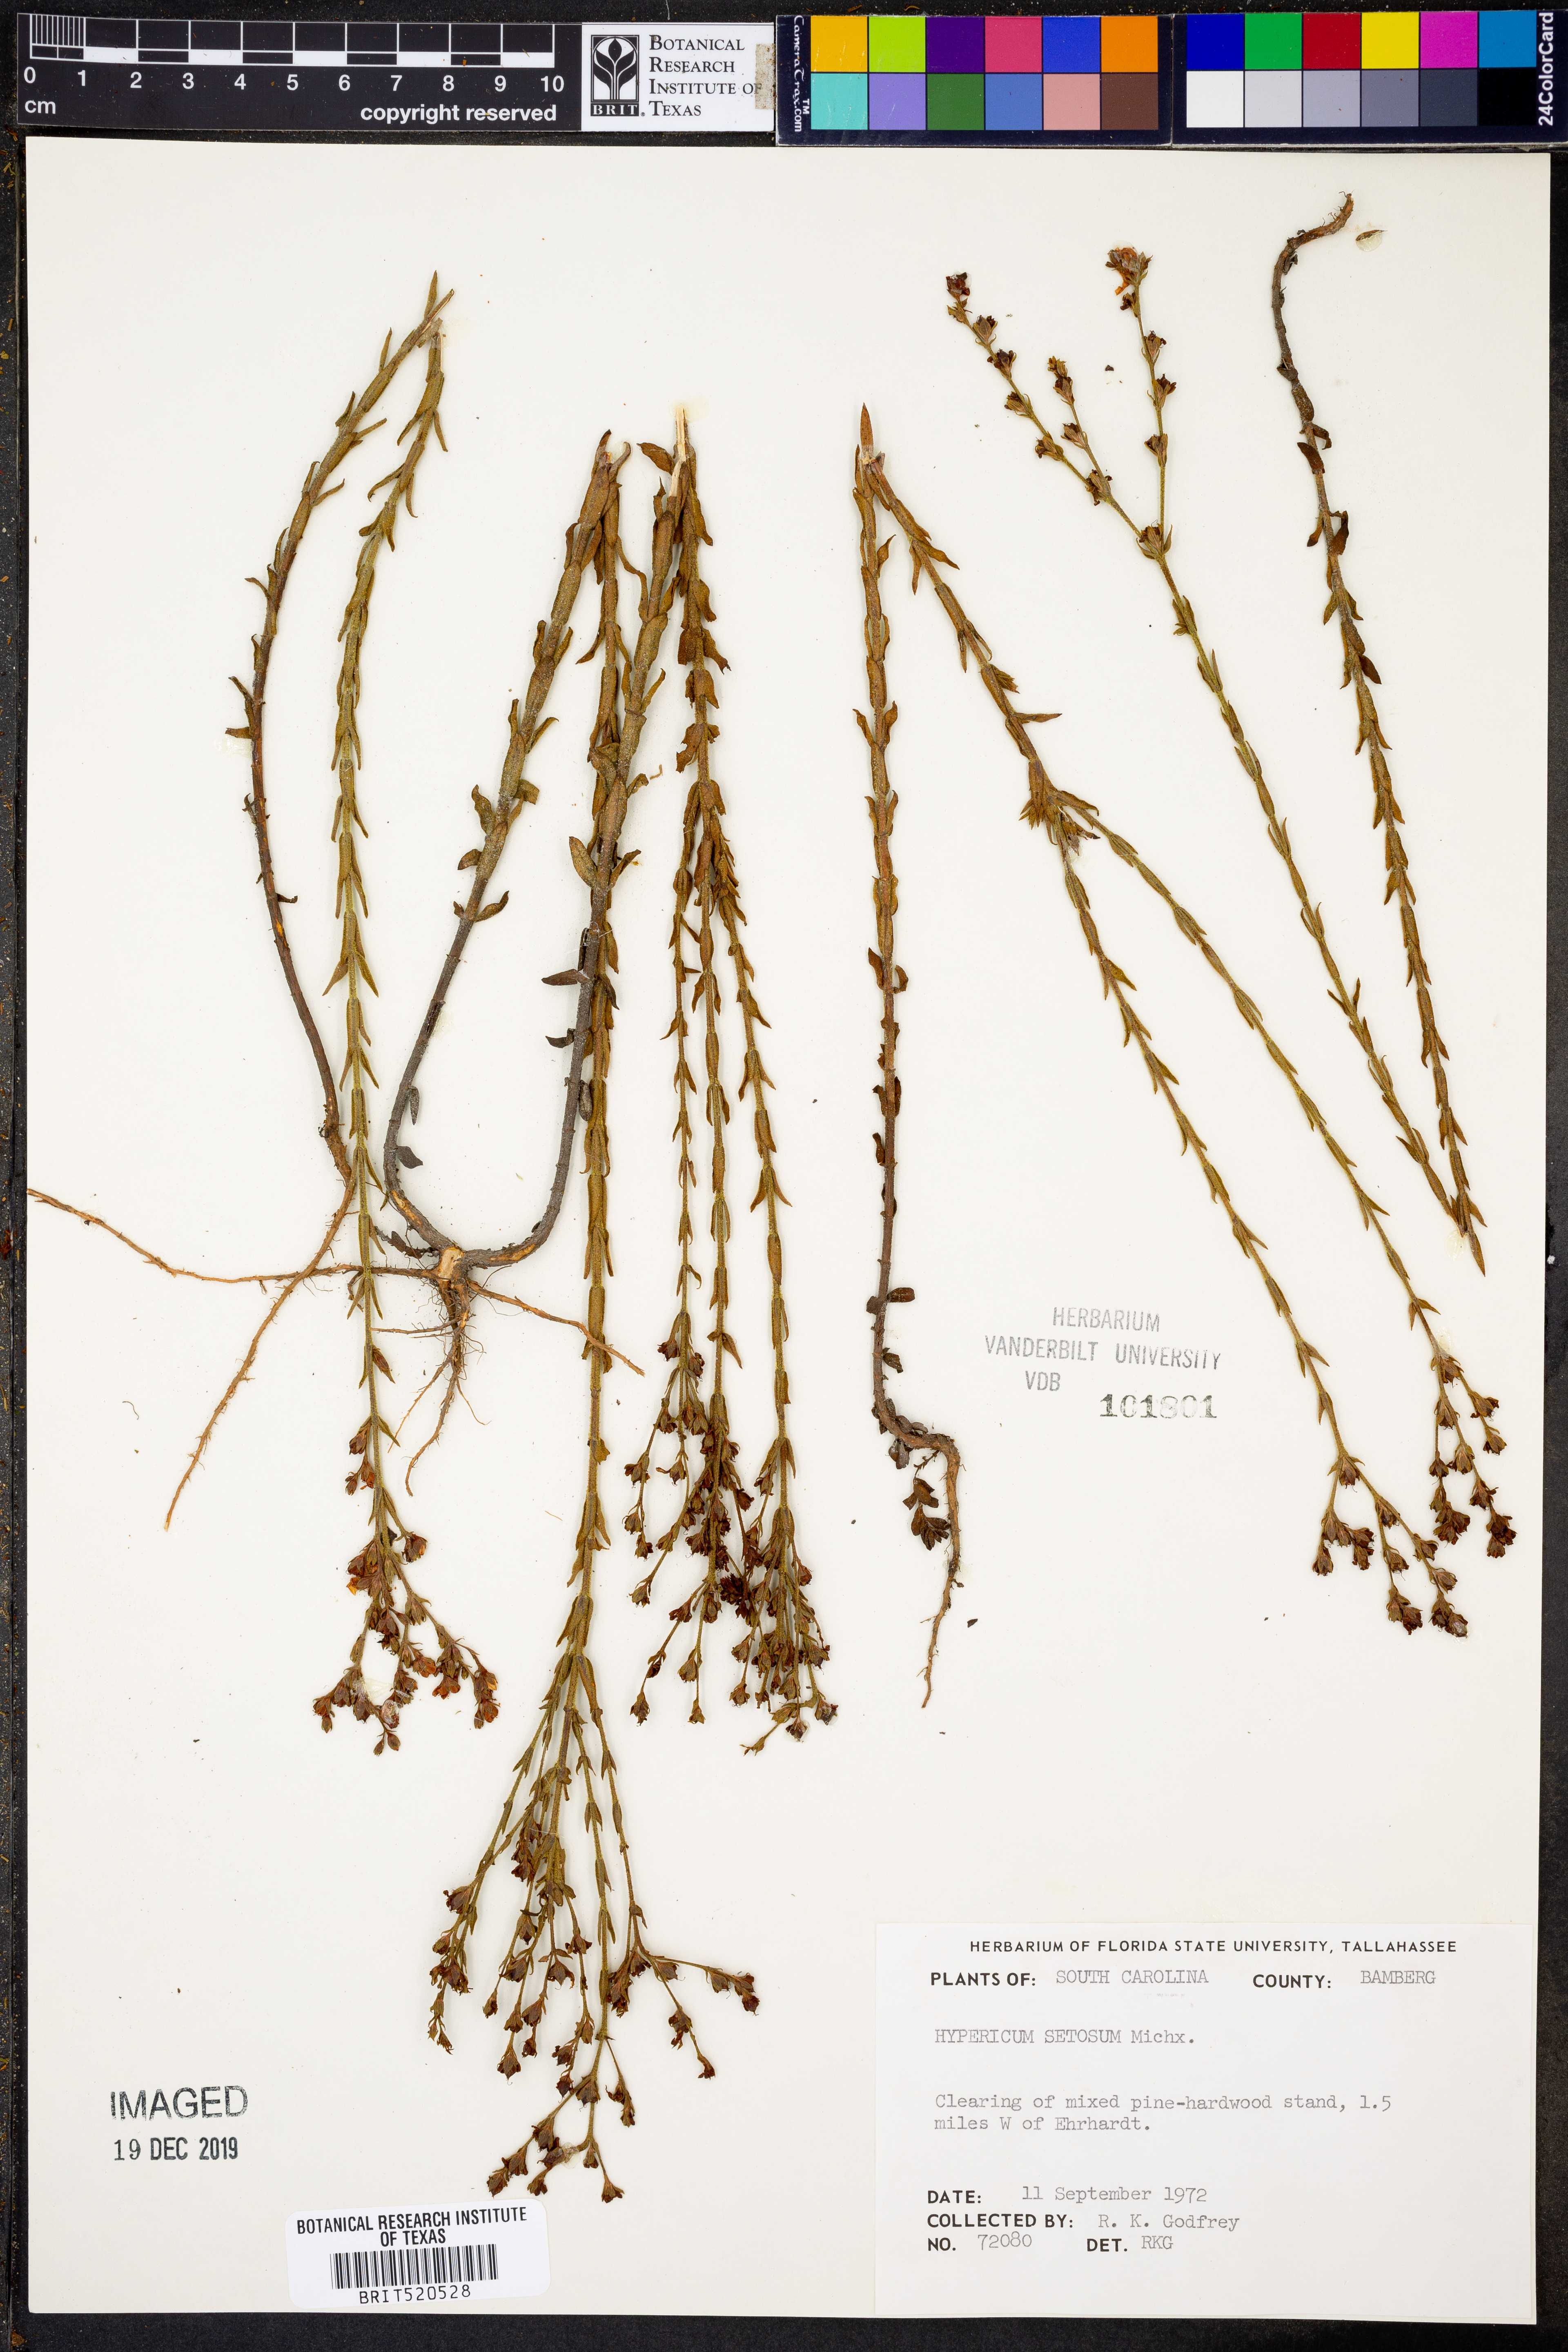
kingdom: Plantae
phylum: Tracheophyta
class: Magnoliopsida
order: Malpighiales
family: Hypericaceae
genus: Hypericum
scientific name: Hypericum setosum
